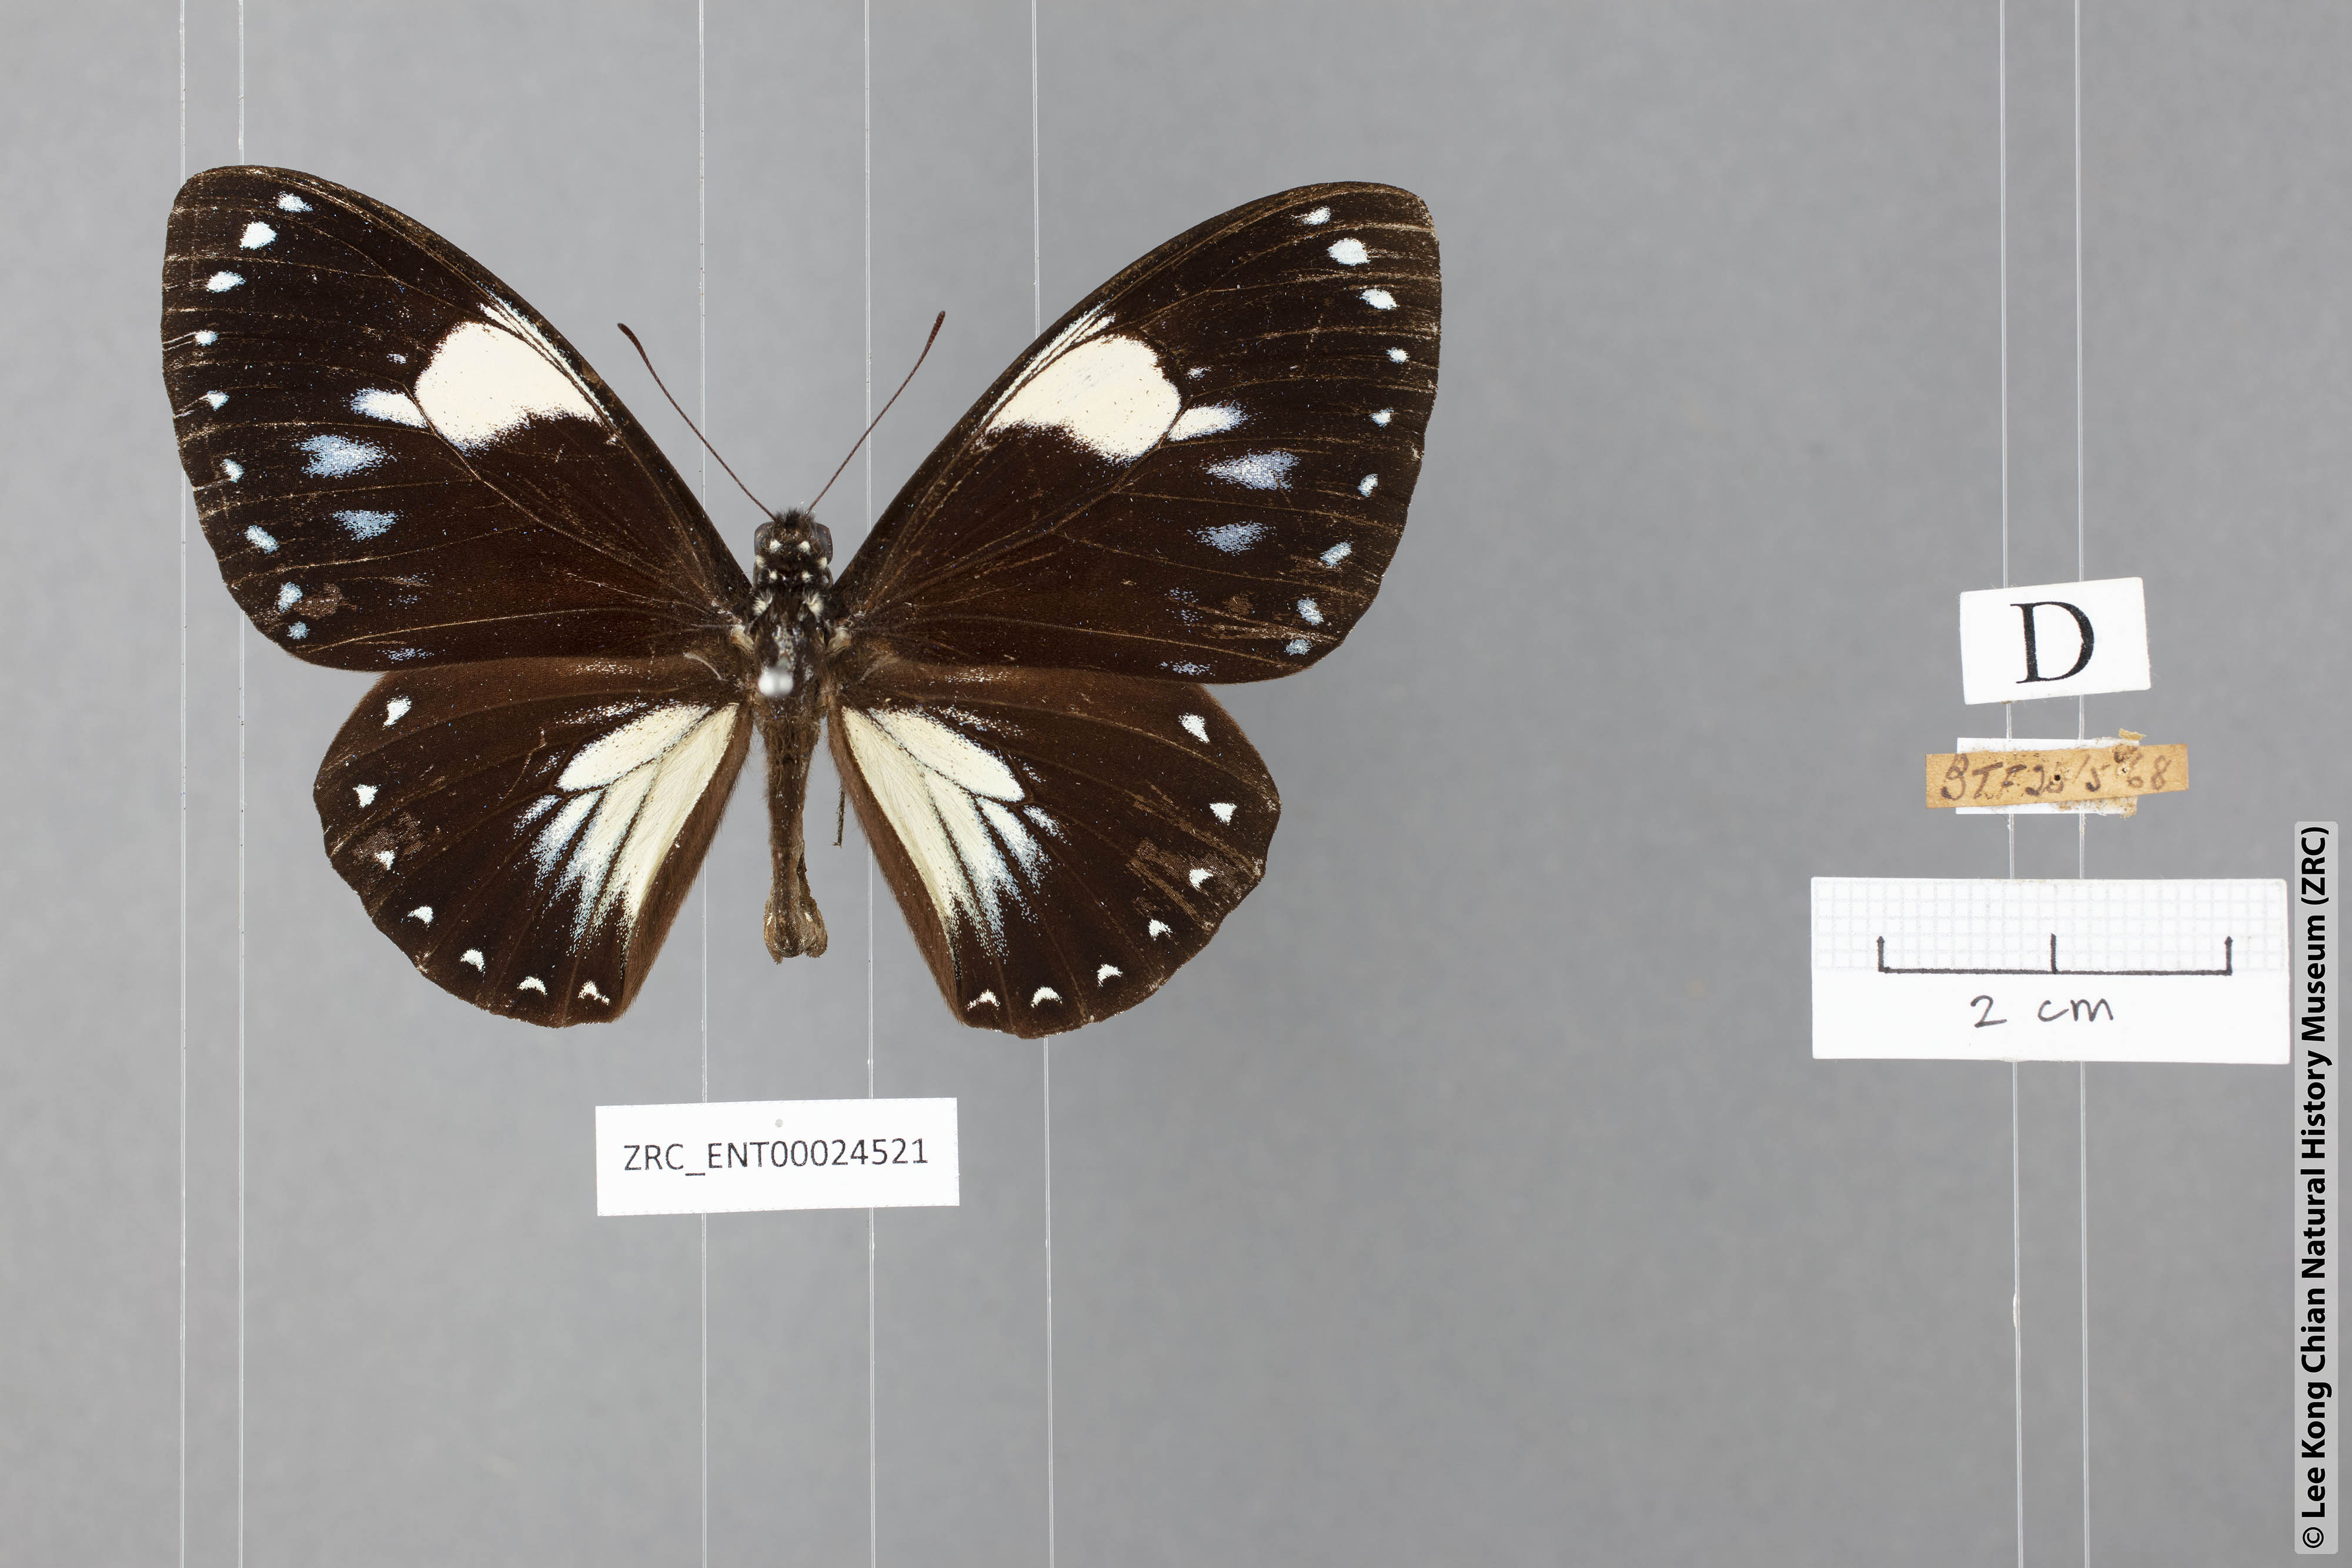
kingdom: Animalia
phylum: Arthropoda
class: Insecta
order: Lepidoptera
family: Papilionidae
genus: Chilasa
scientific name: Chilasa paradoxa
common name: Great mime
